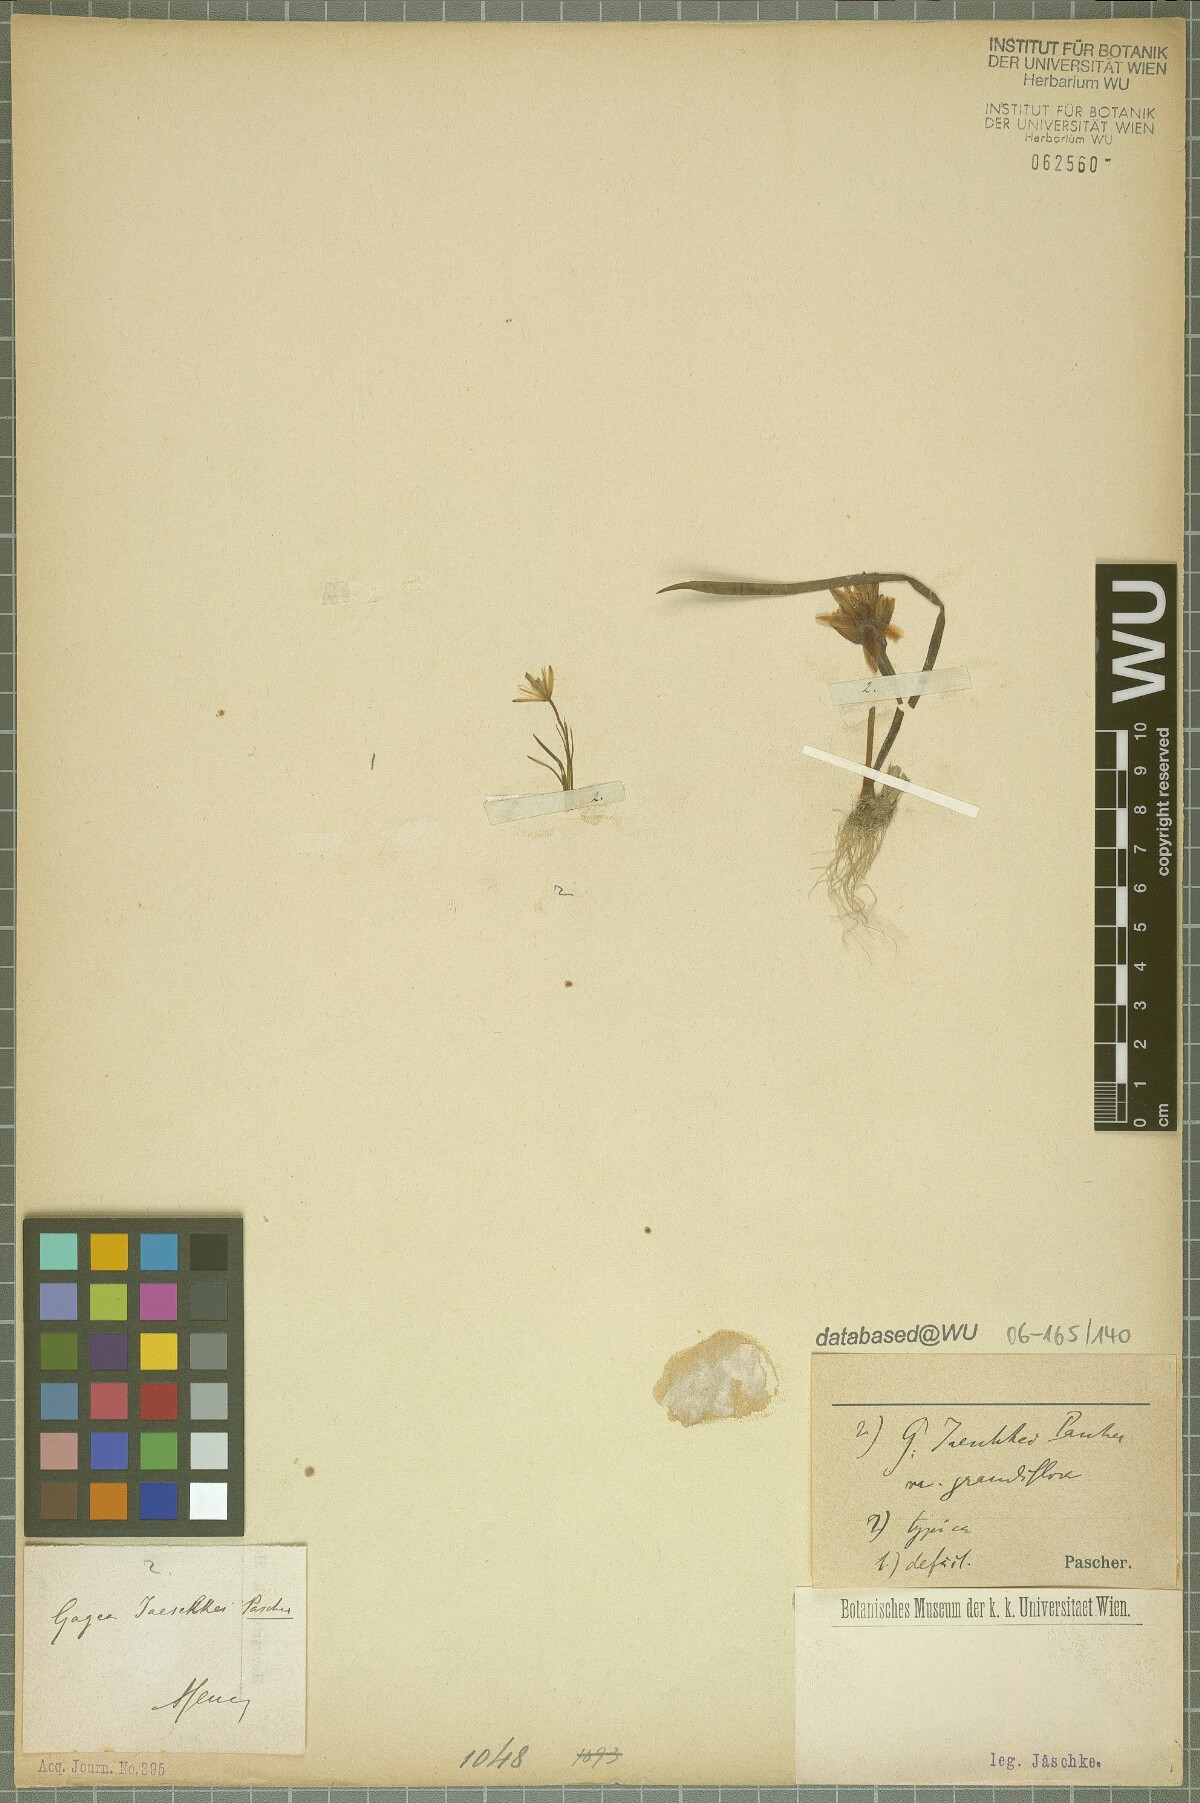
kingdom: Plantae
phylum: Tracheophyta
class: Liliopsida
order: Liliales
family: Liliaceae
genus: Gagea
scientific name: Gagea jaeschkei
